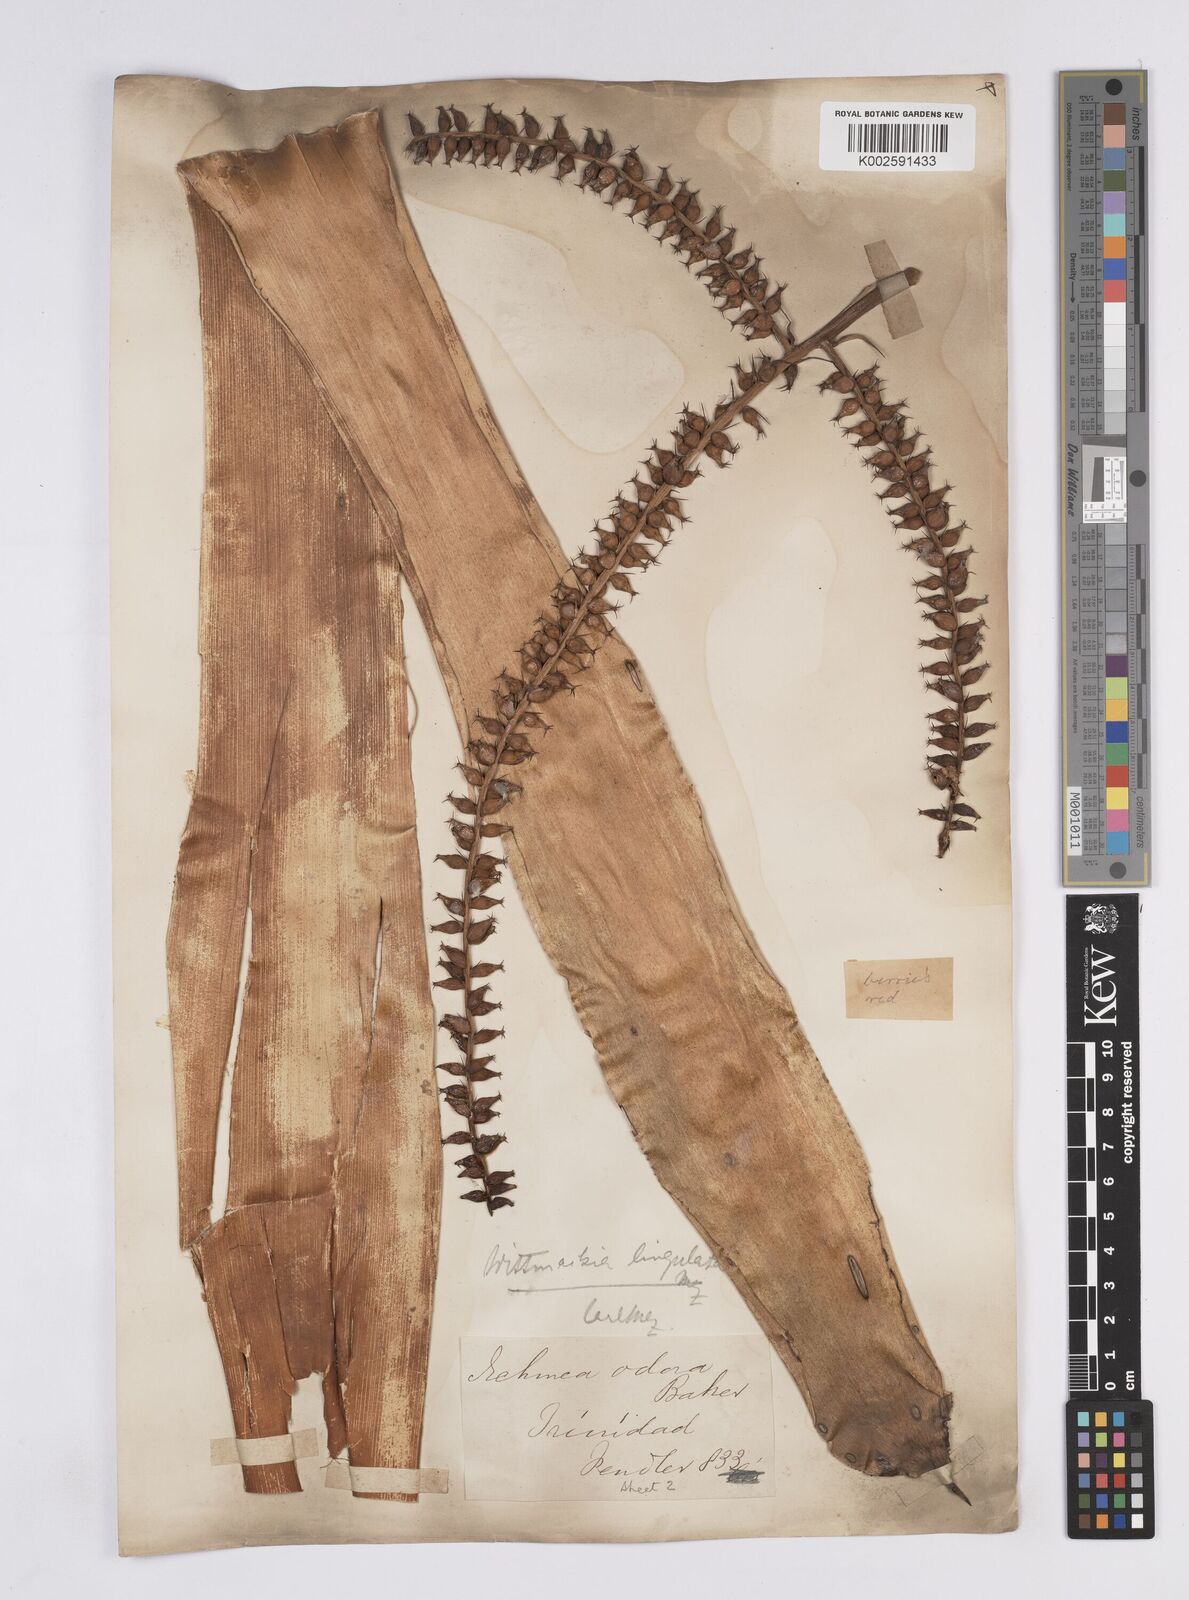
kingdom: Plantae
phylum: Tracheophyta
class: Liliopsida
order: Poales
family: Bromeliaceae
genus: Wittmackia
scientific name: Wittmackia lingulata
